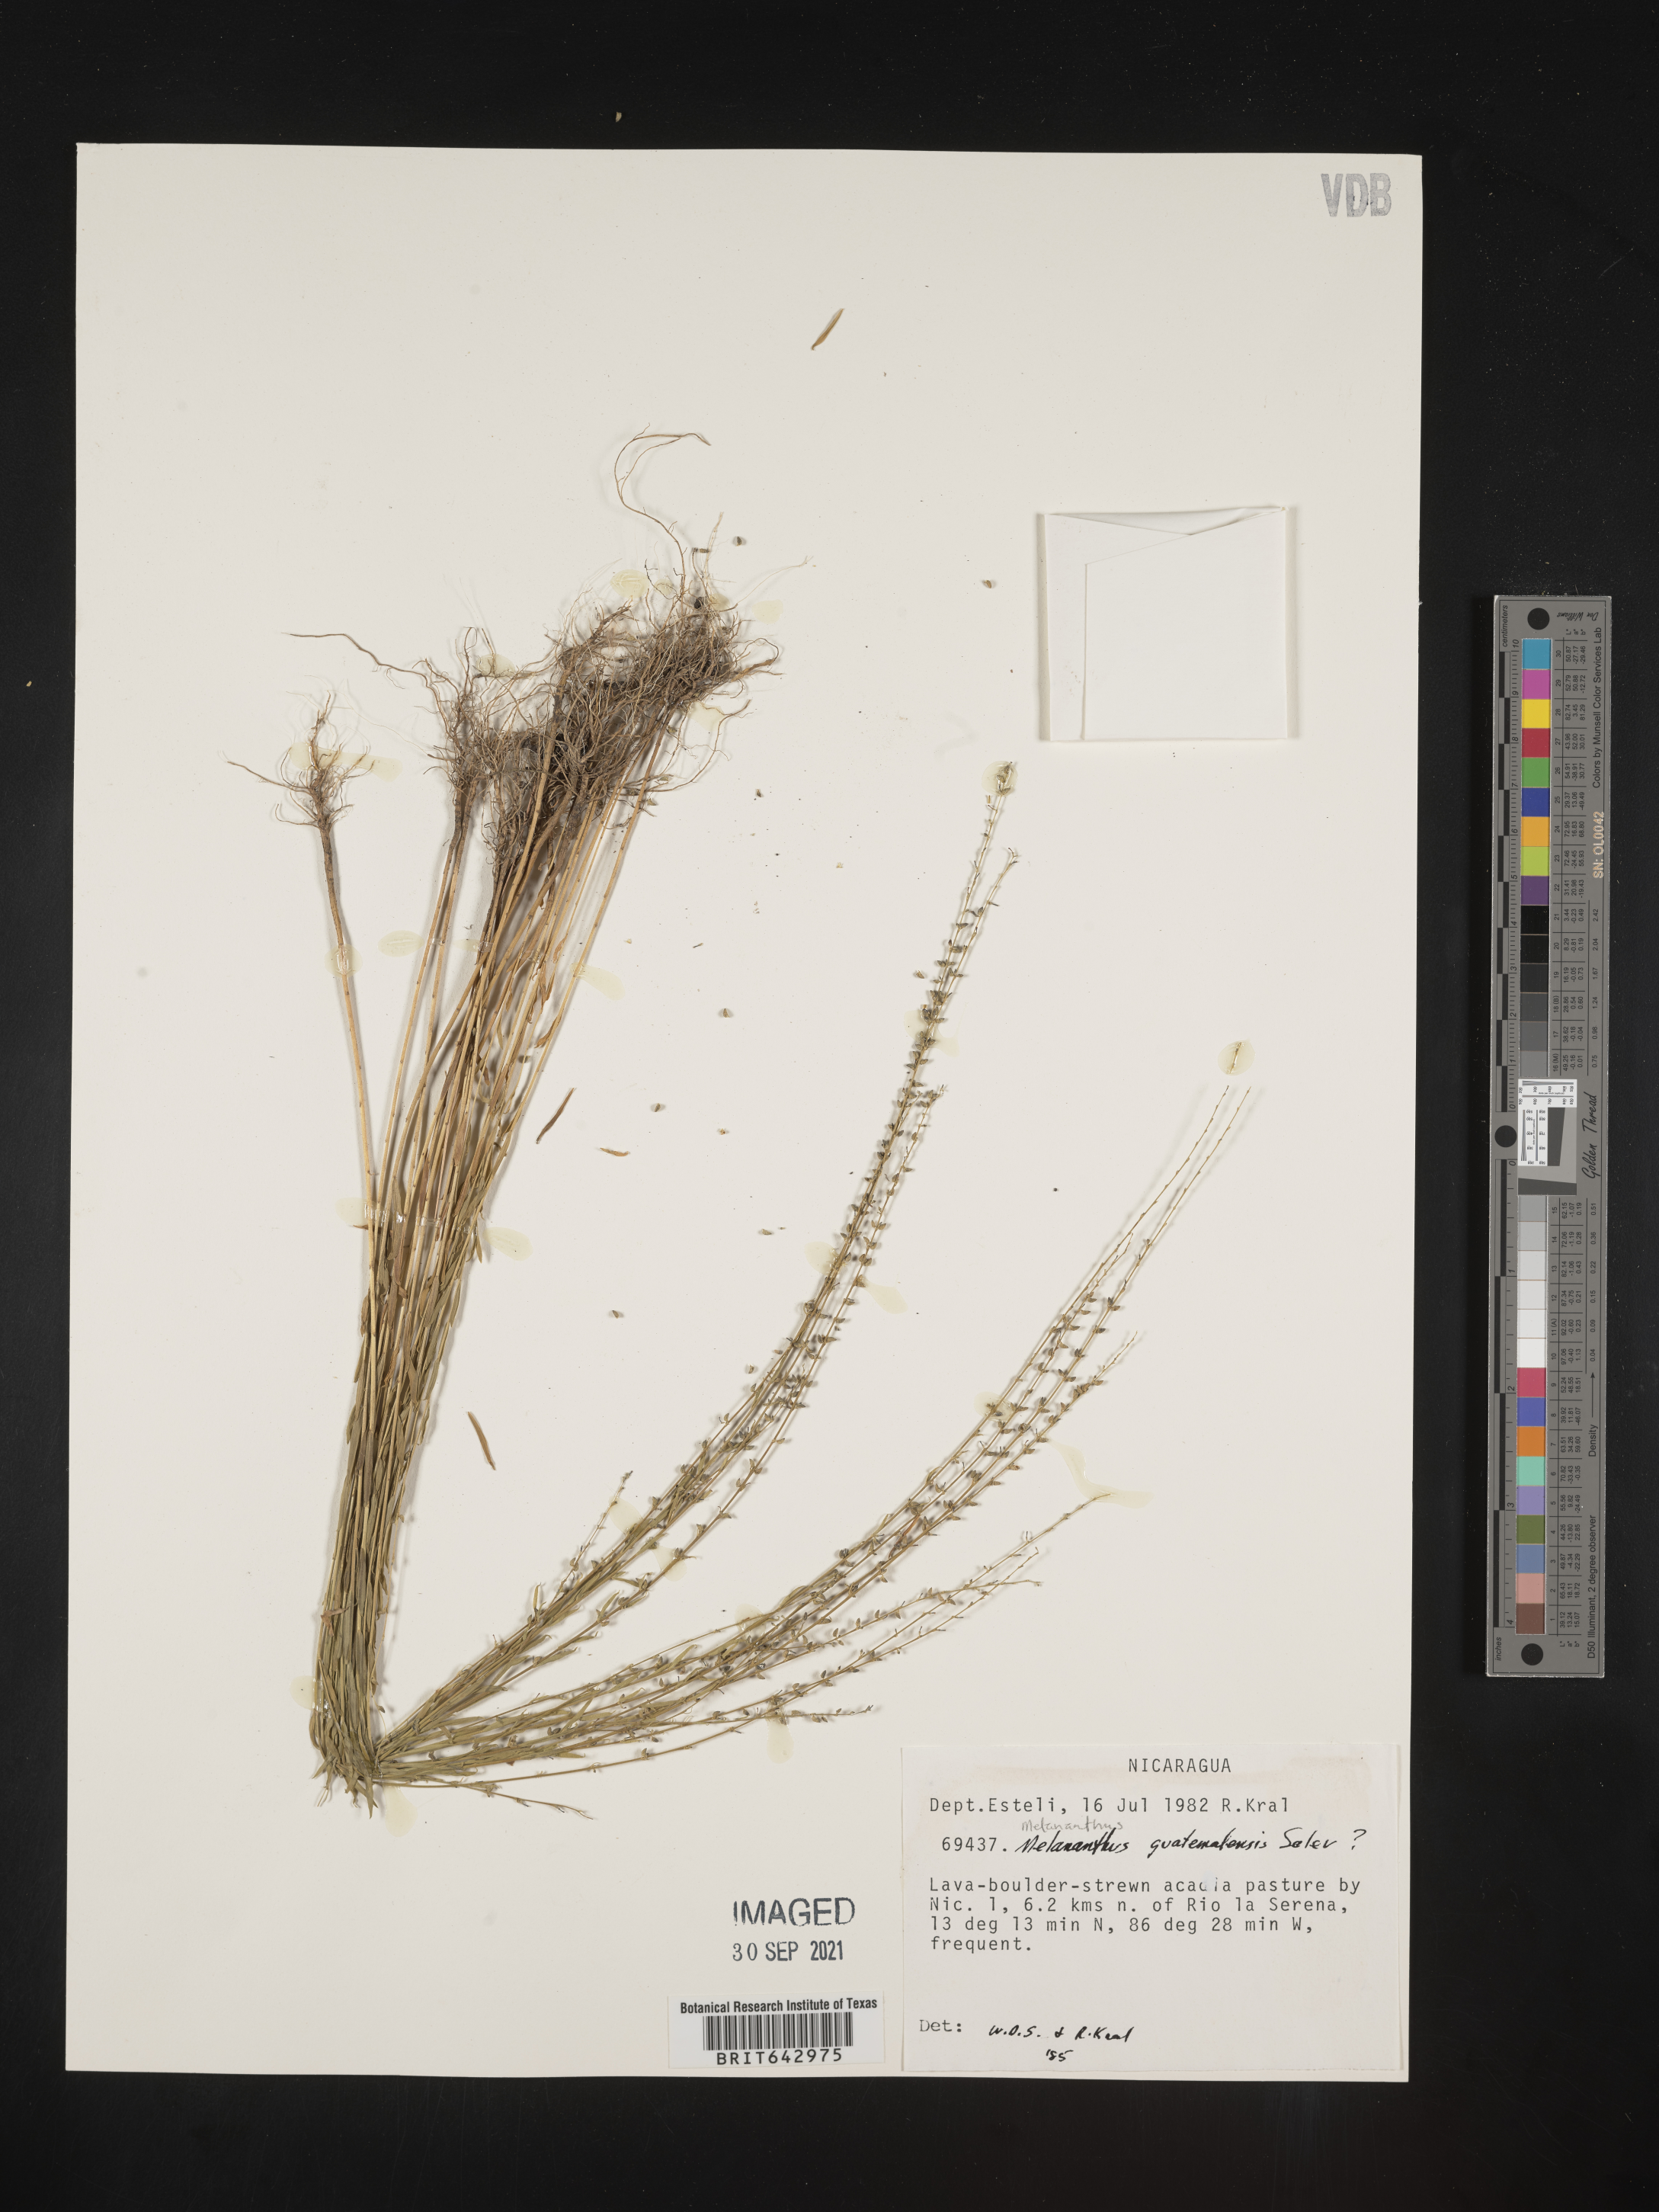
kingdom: Plantae
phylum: Tracheophyta
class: Magnoliopsida
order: Solanales
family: Solanaceae
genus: Melananthus
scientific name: Melananthus
